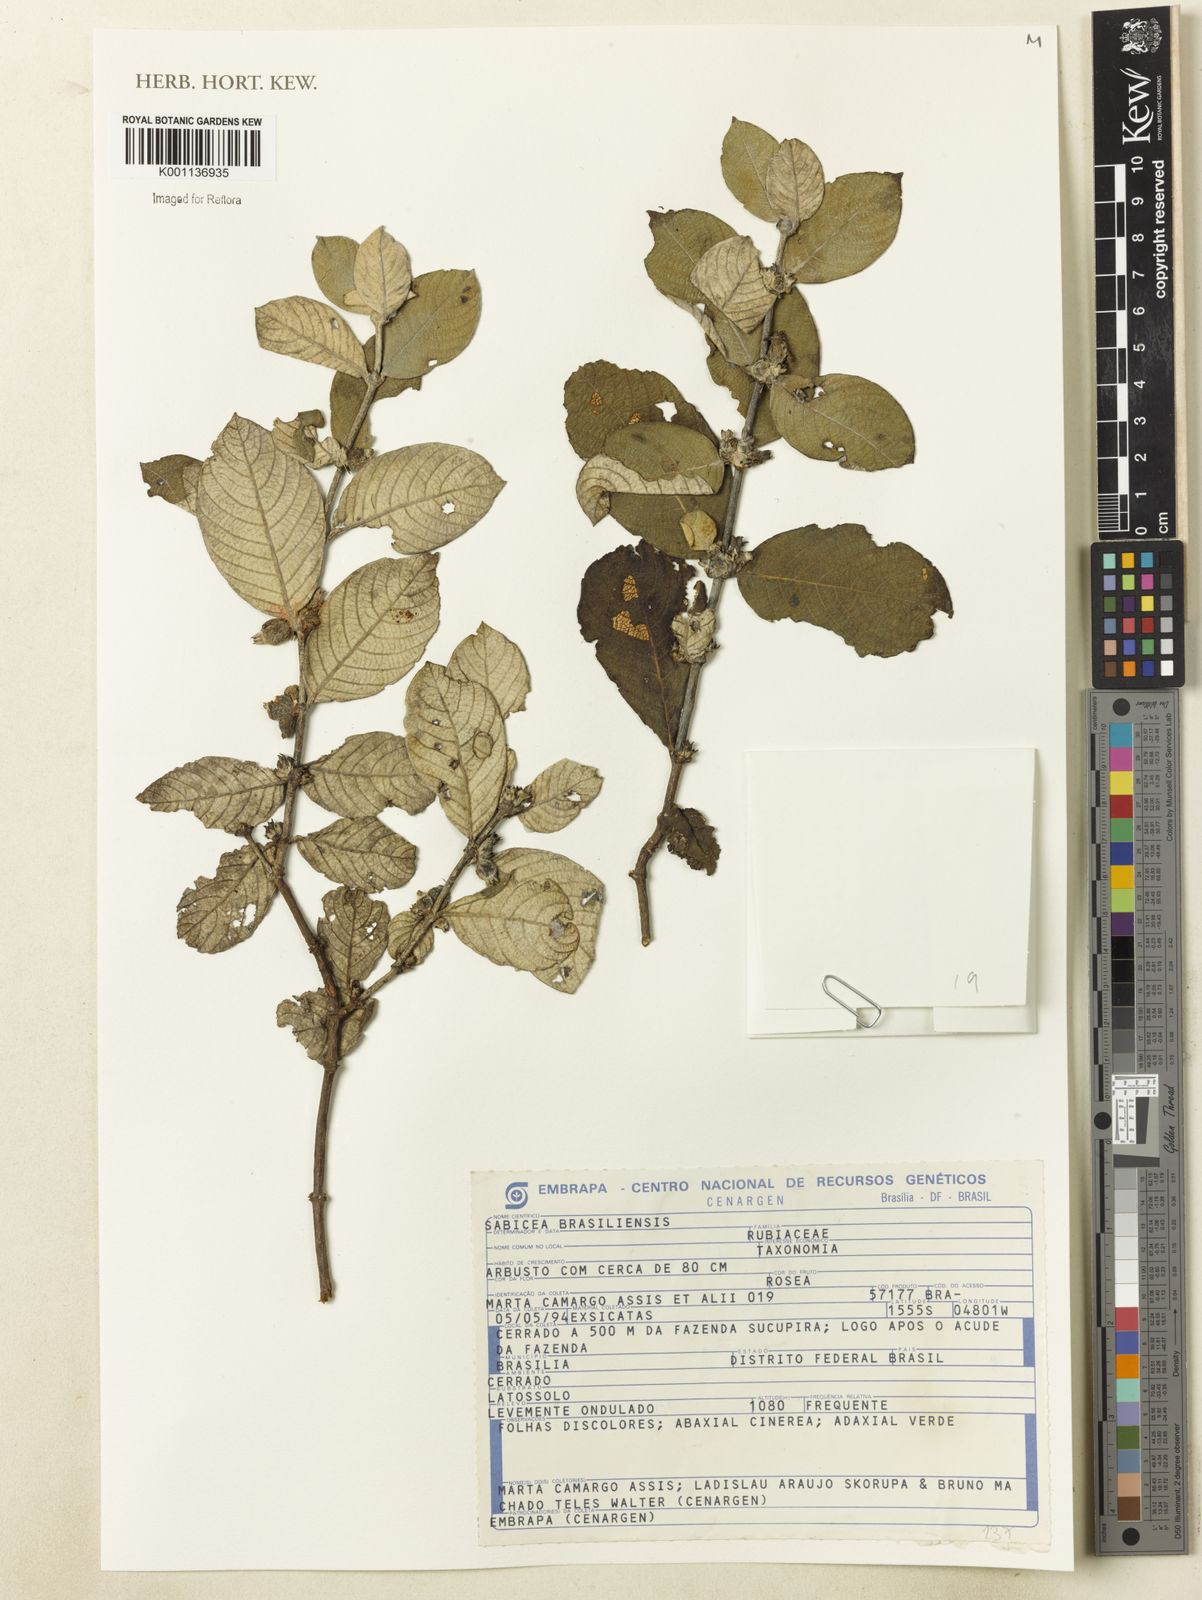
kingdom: Plantae
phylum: Tracheophyta
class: Magnoliopsida
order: Gentianales
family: Rubiaceae
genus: Sabicea
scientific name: Sabicea brasiliensis
